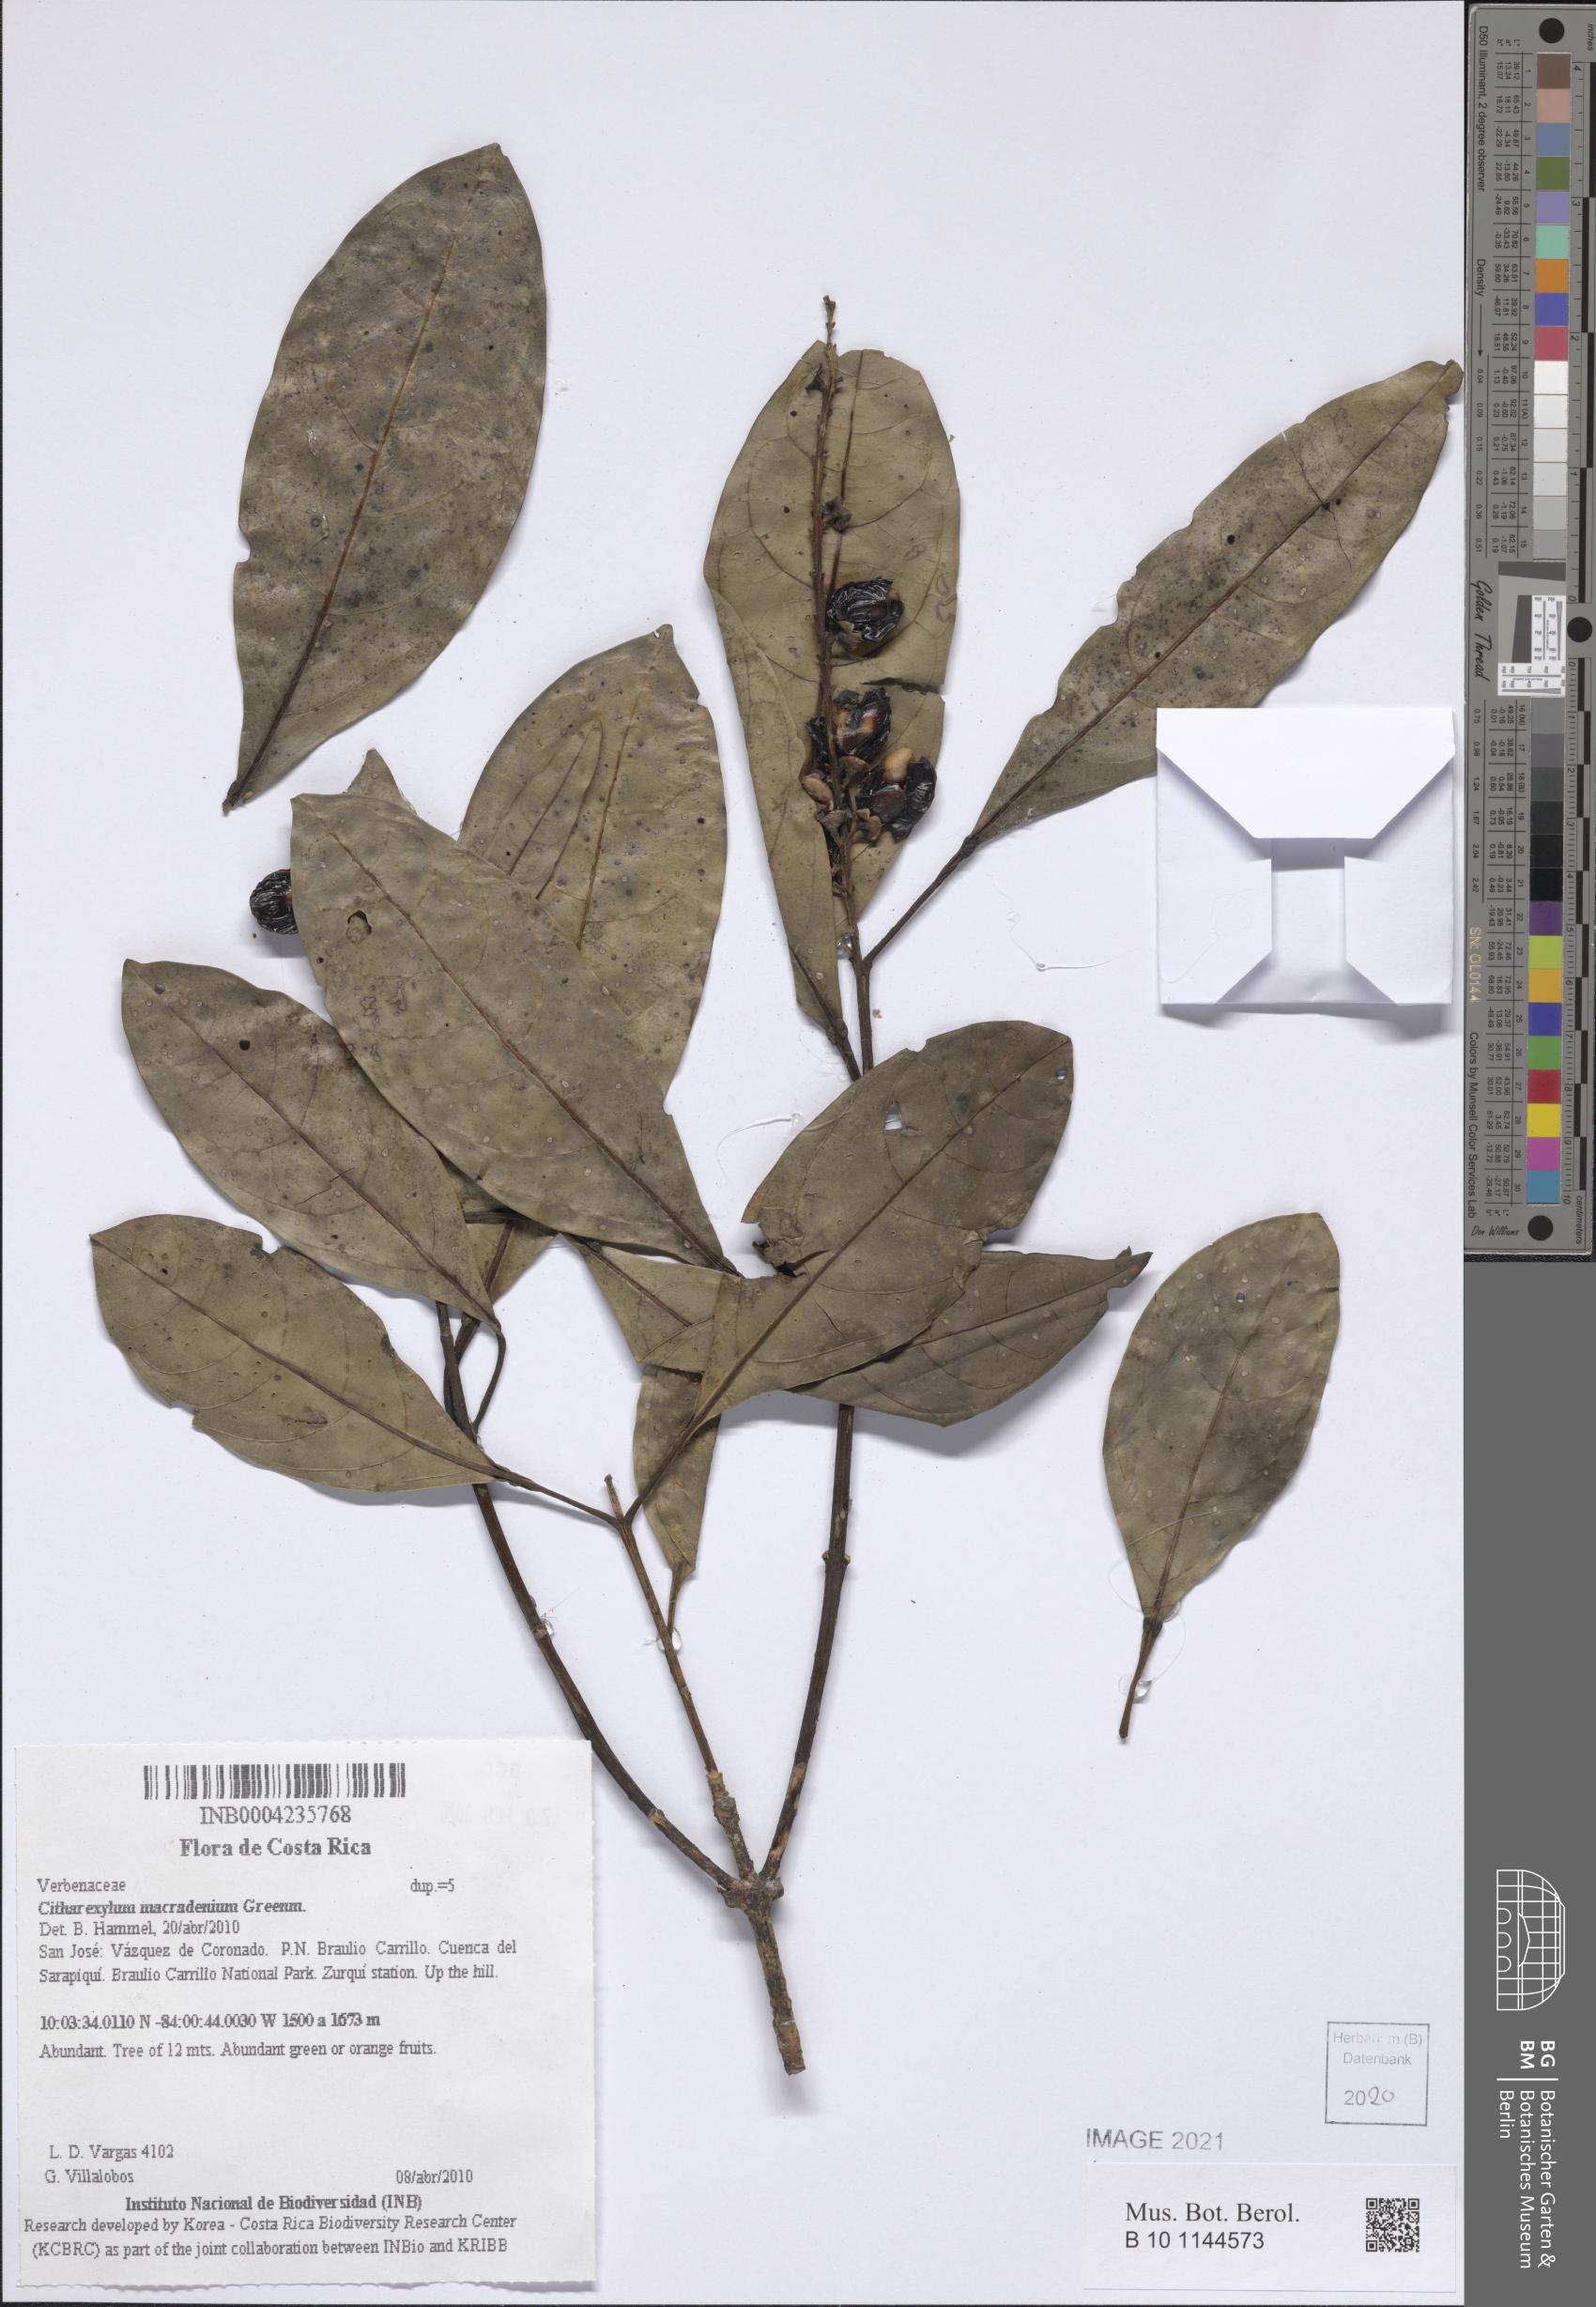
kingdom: Plantae
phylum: Tracheophyta
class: Magnoliopsida
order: Lamiales
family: Verbenaceae
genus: Citharexylum
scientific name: Citharexylum macradenium
